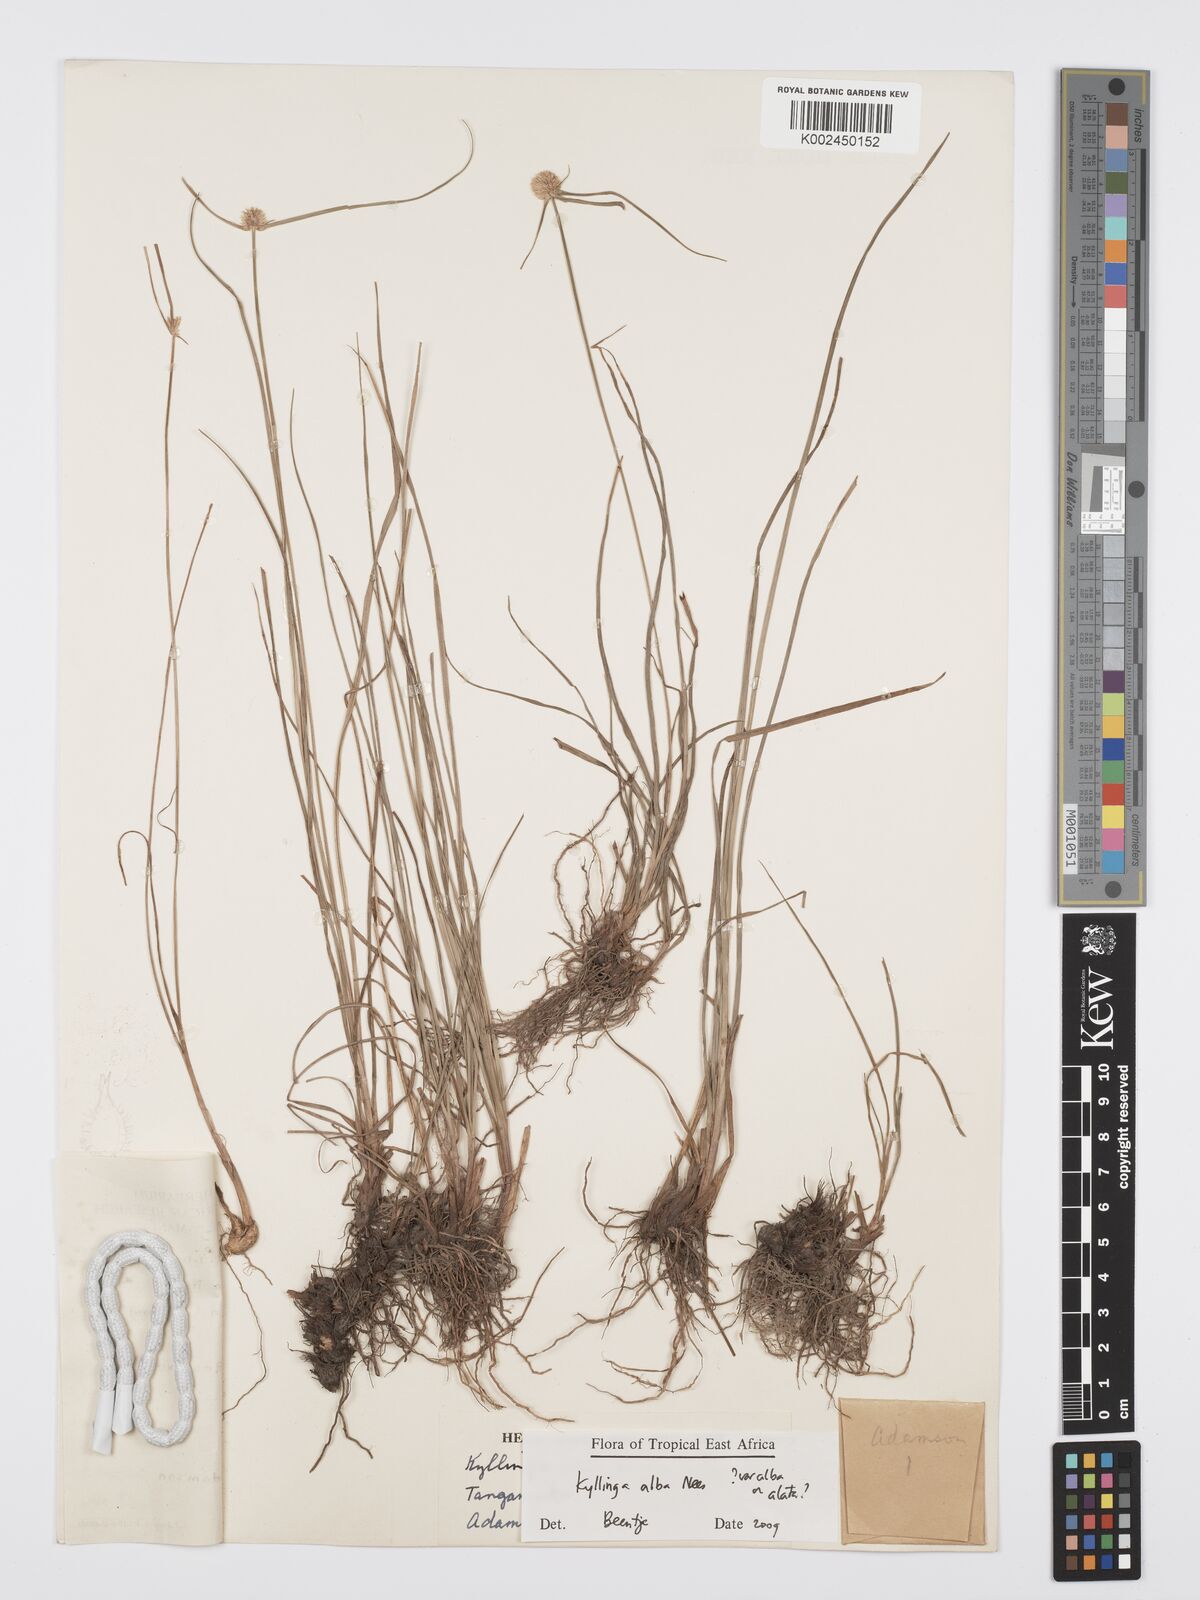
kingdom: Plantae
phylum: Tracheophyta
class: Liliopsida
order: Poales
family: Cyperaceae
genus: Cyperus
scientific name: Cyperus alatus
